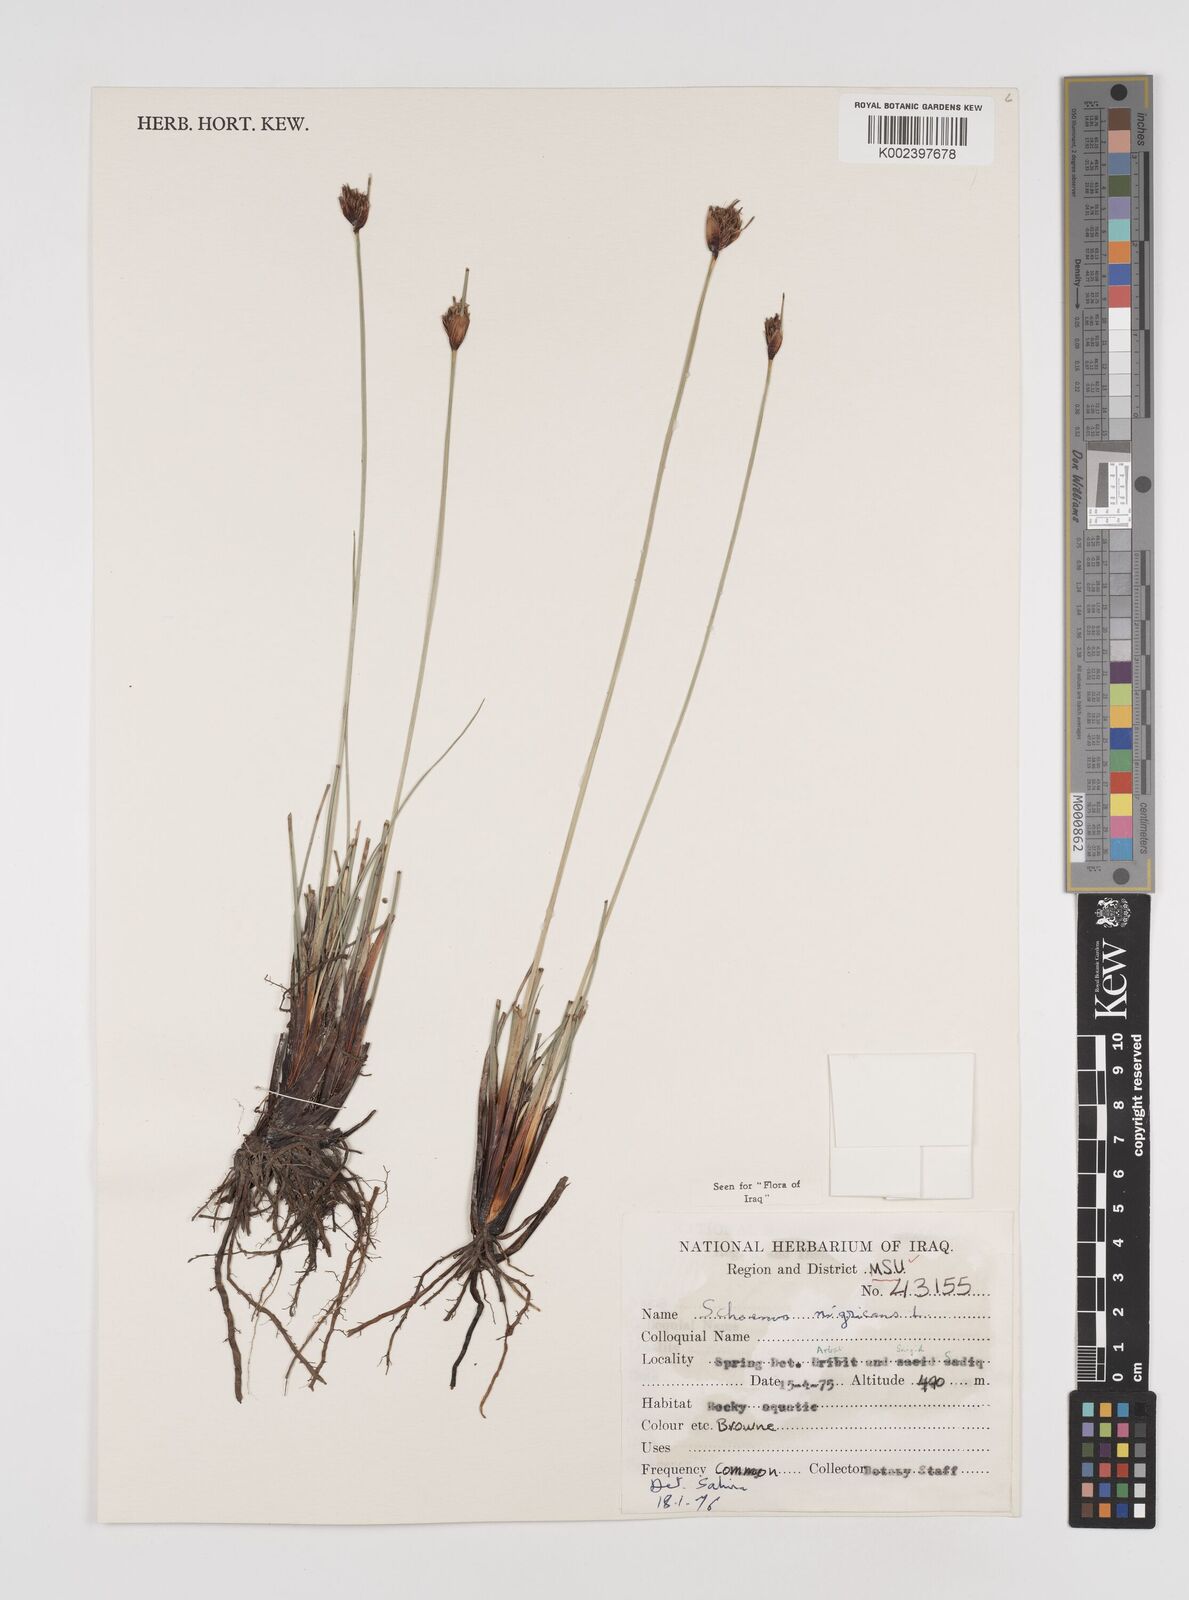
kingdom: Plantae
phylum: Tracheophyta
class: Liliopsida
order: Poales
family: Cyperaceae
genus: Schoenus
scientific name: Schoenus nigricans
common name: Black bog-rush
